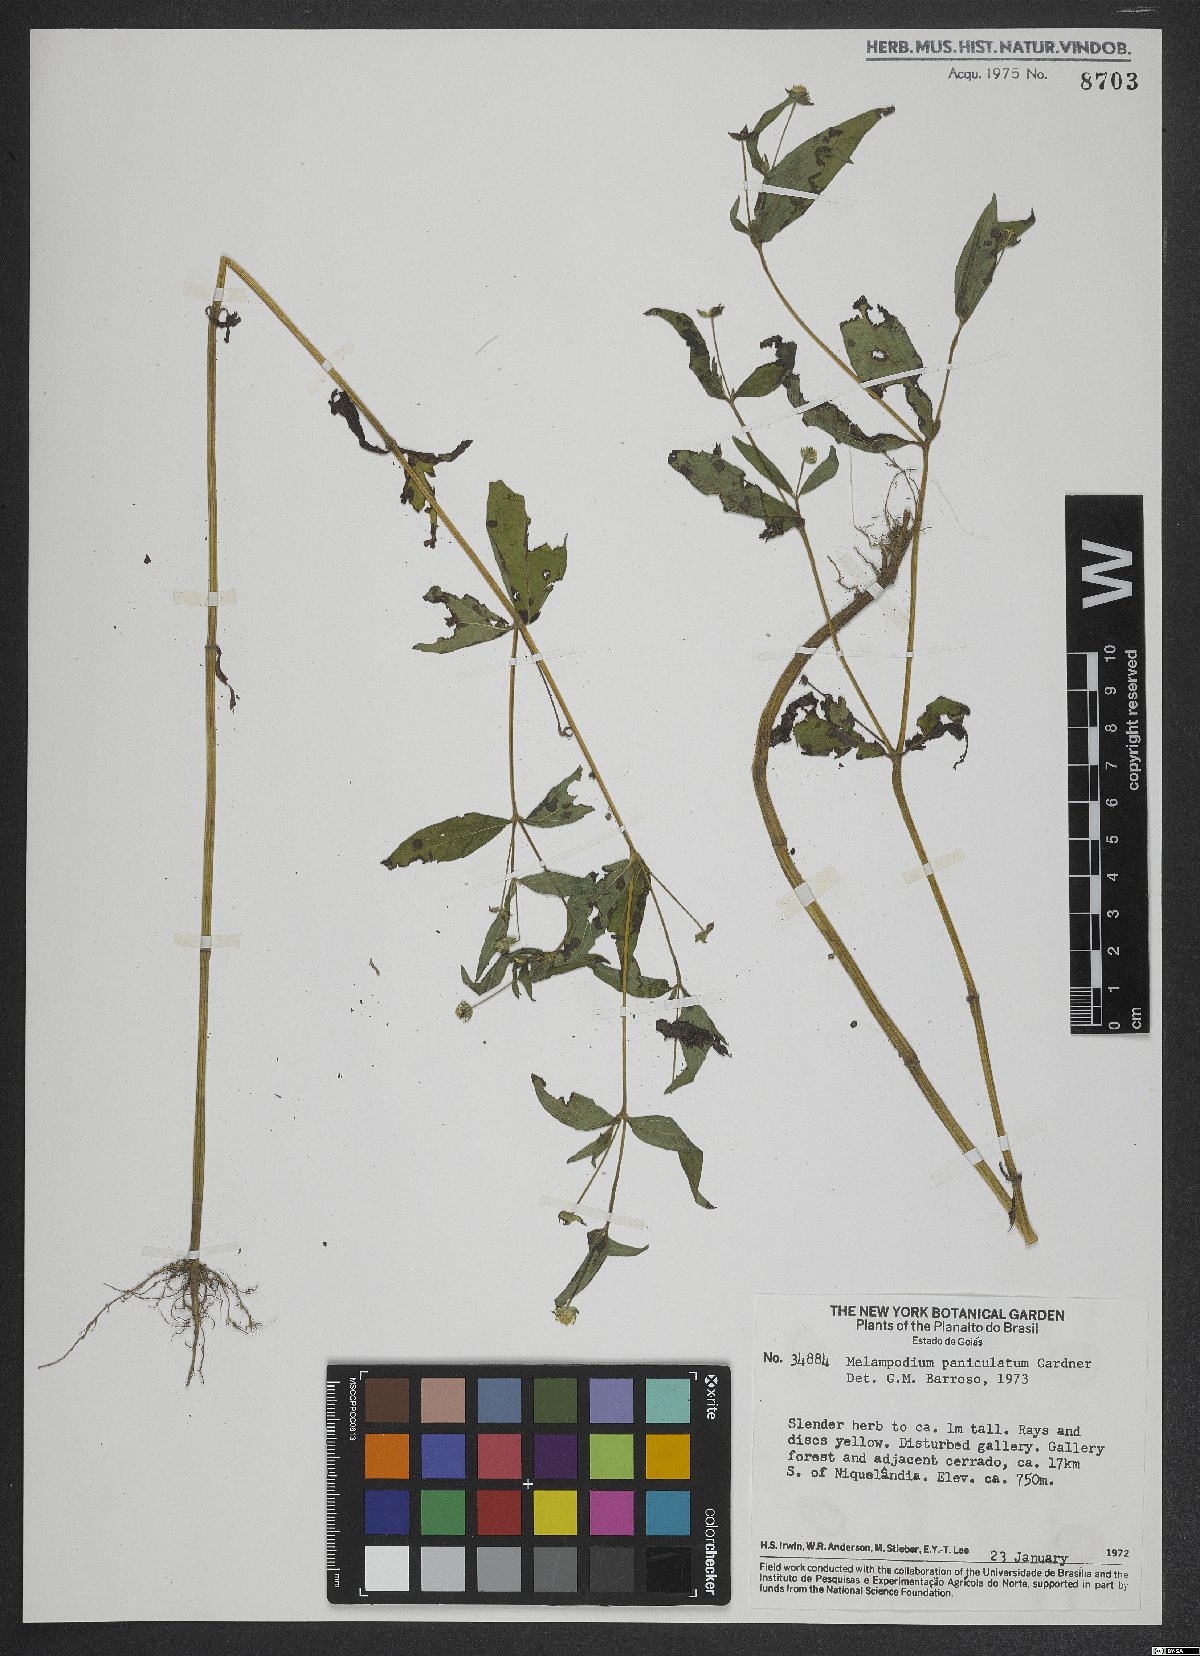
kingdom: Plantae
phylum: Tracheophyta
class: Magnoliopsida
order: Asterales
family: Asteraceae
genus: Melampodium
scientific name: Melampodium paniculatum
